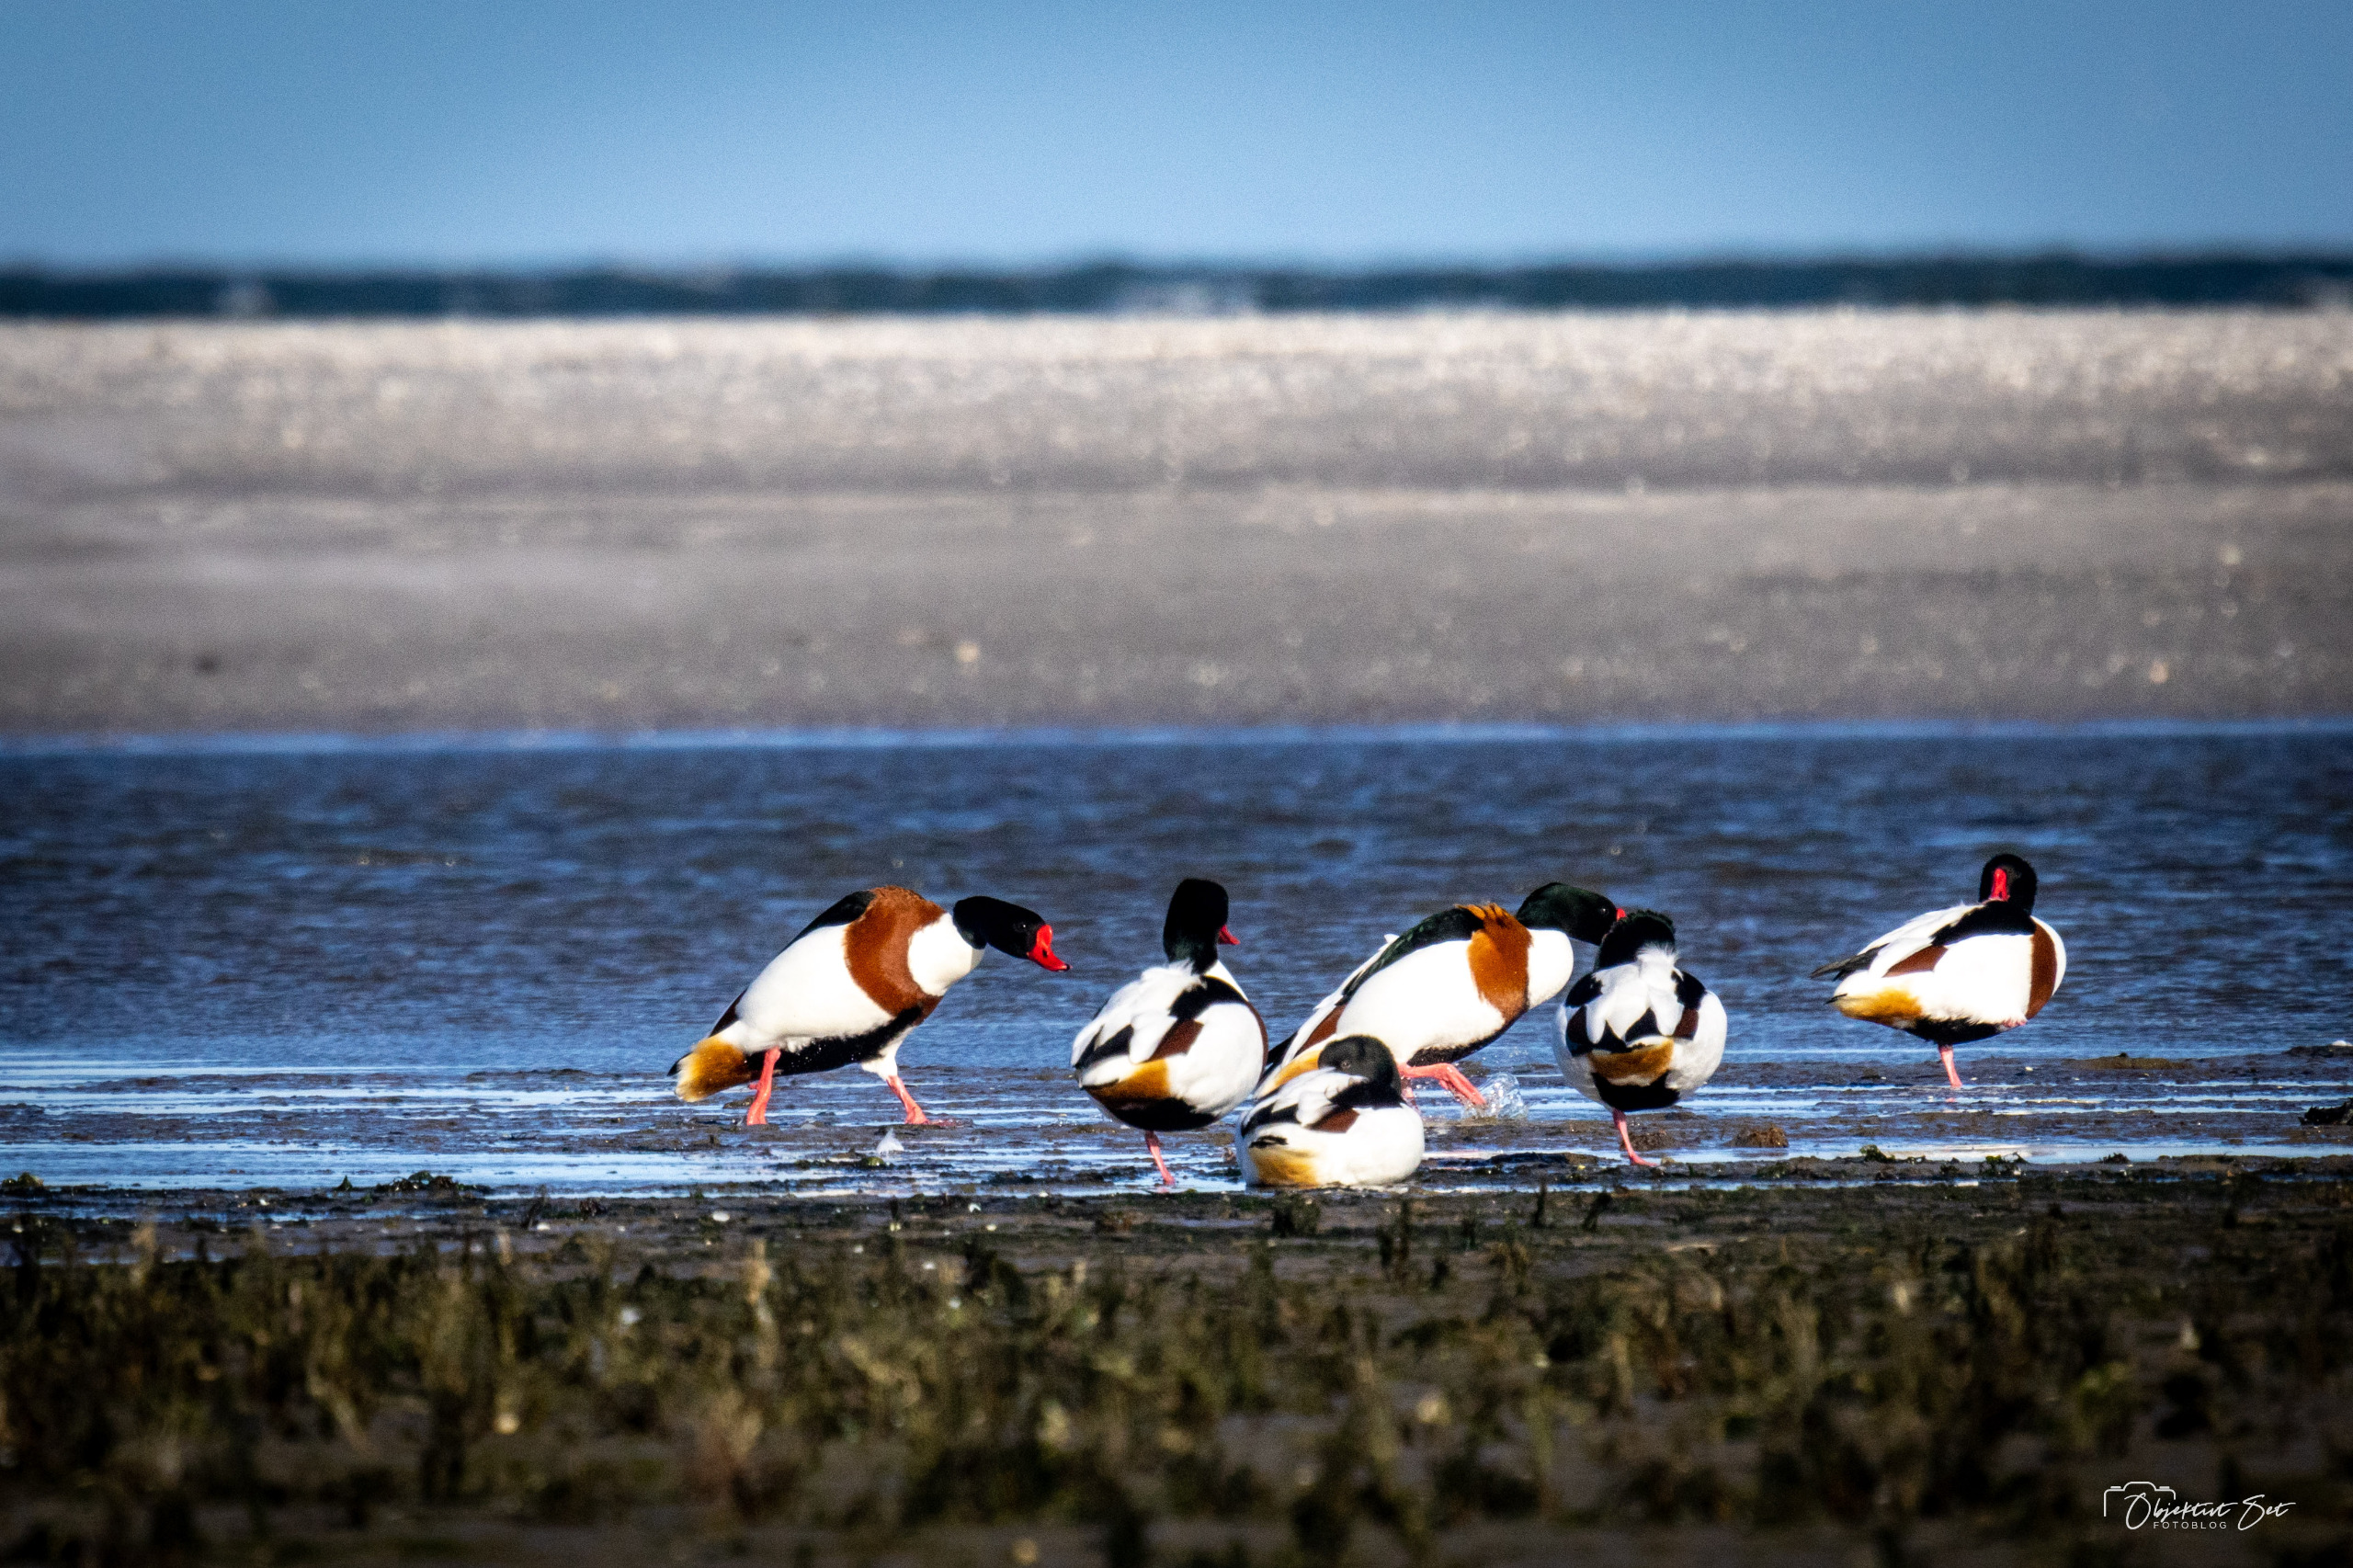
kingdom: Animalia
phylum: Chordata
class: Aves
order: Anseriformes
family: Anatidae
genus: Tadorna
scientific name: Tadorna tadorna
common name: Gravand
